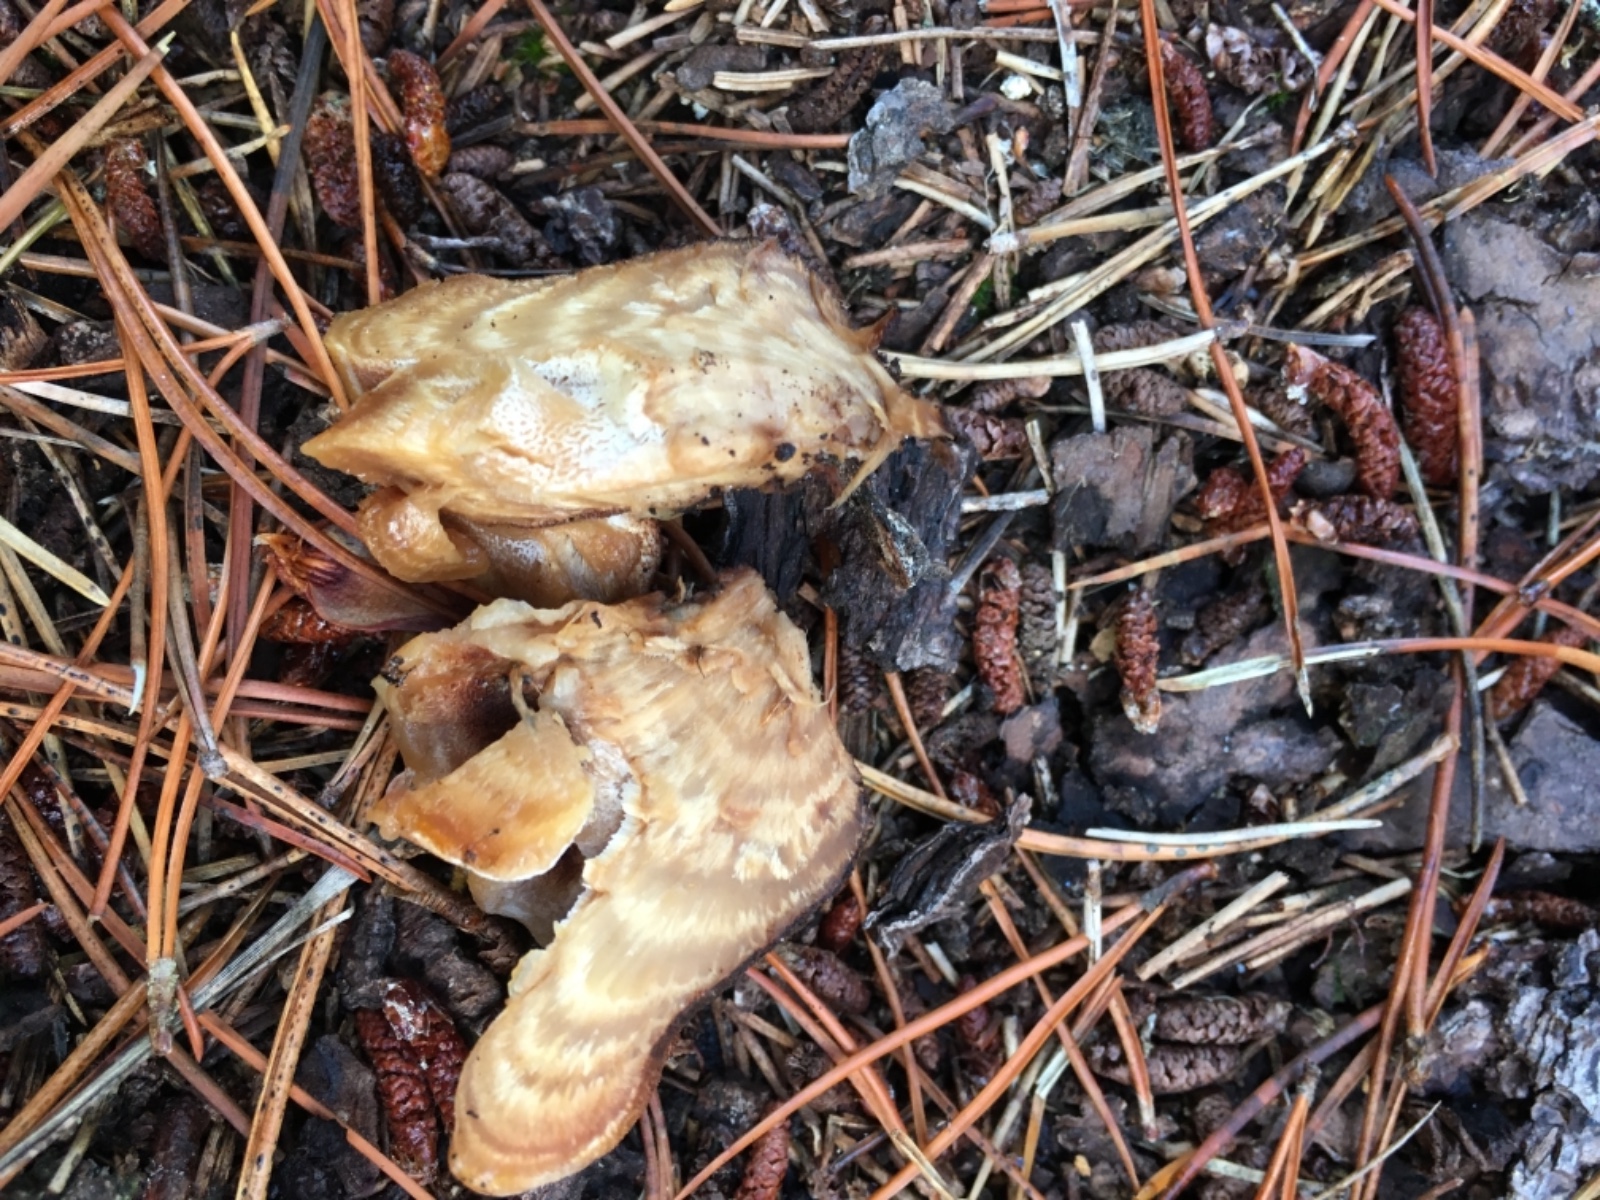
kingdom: Fungi
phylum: Basidiomycota
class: Agaricomycetes
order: Polyporales
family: Ischnodermataceae
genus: Ischnoderma
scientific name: Ischnoderma benzoinum
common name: gran-tjæreporesvamp
